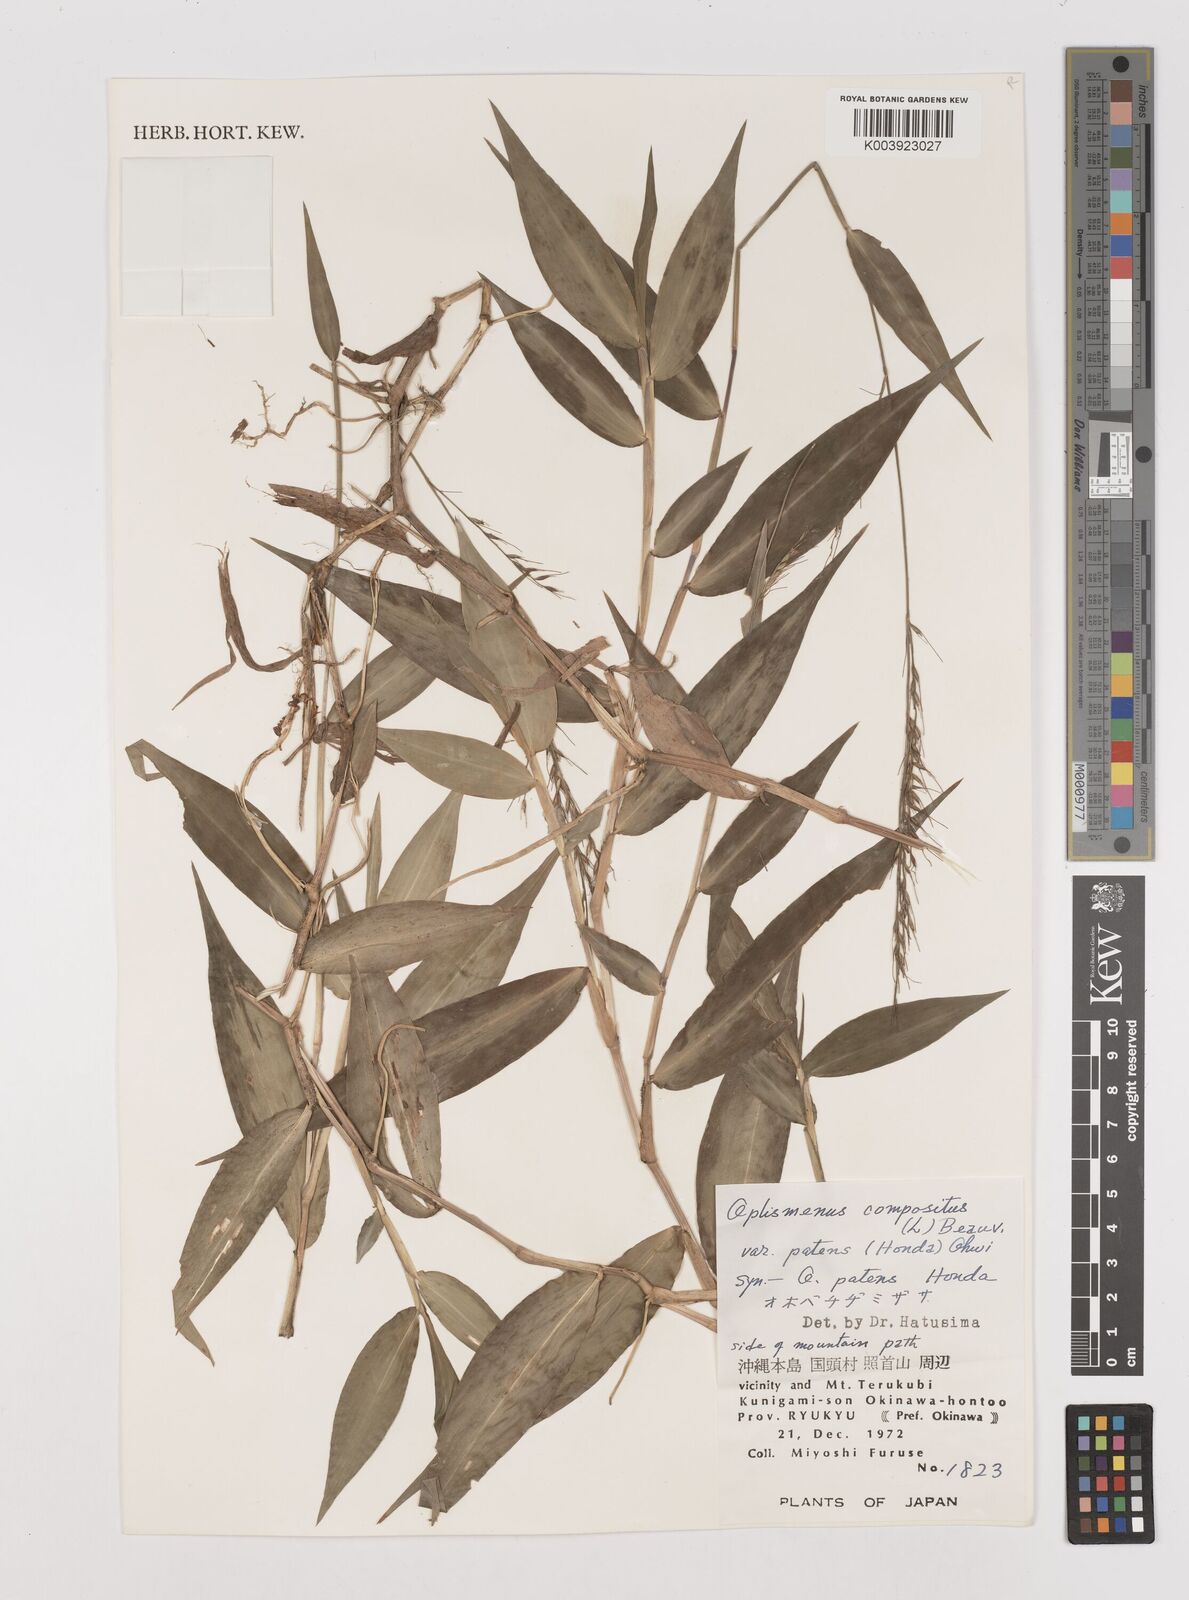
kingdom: Plantae
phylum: Tracheophyta
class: Liliopsida
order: Poales
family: Poaceae
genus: Oplismenus
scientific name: Oplismenus compositus
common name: Running mountain grass
